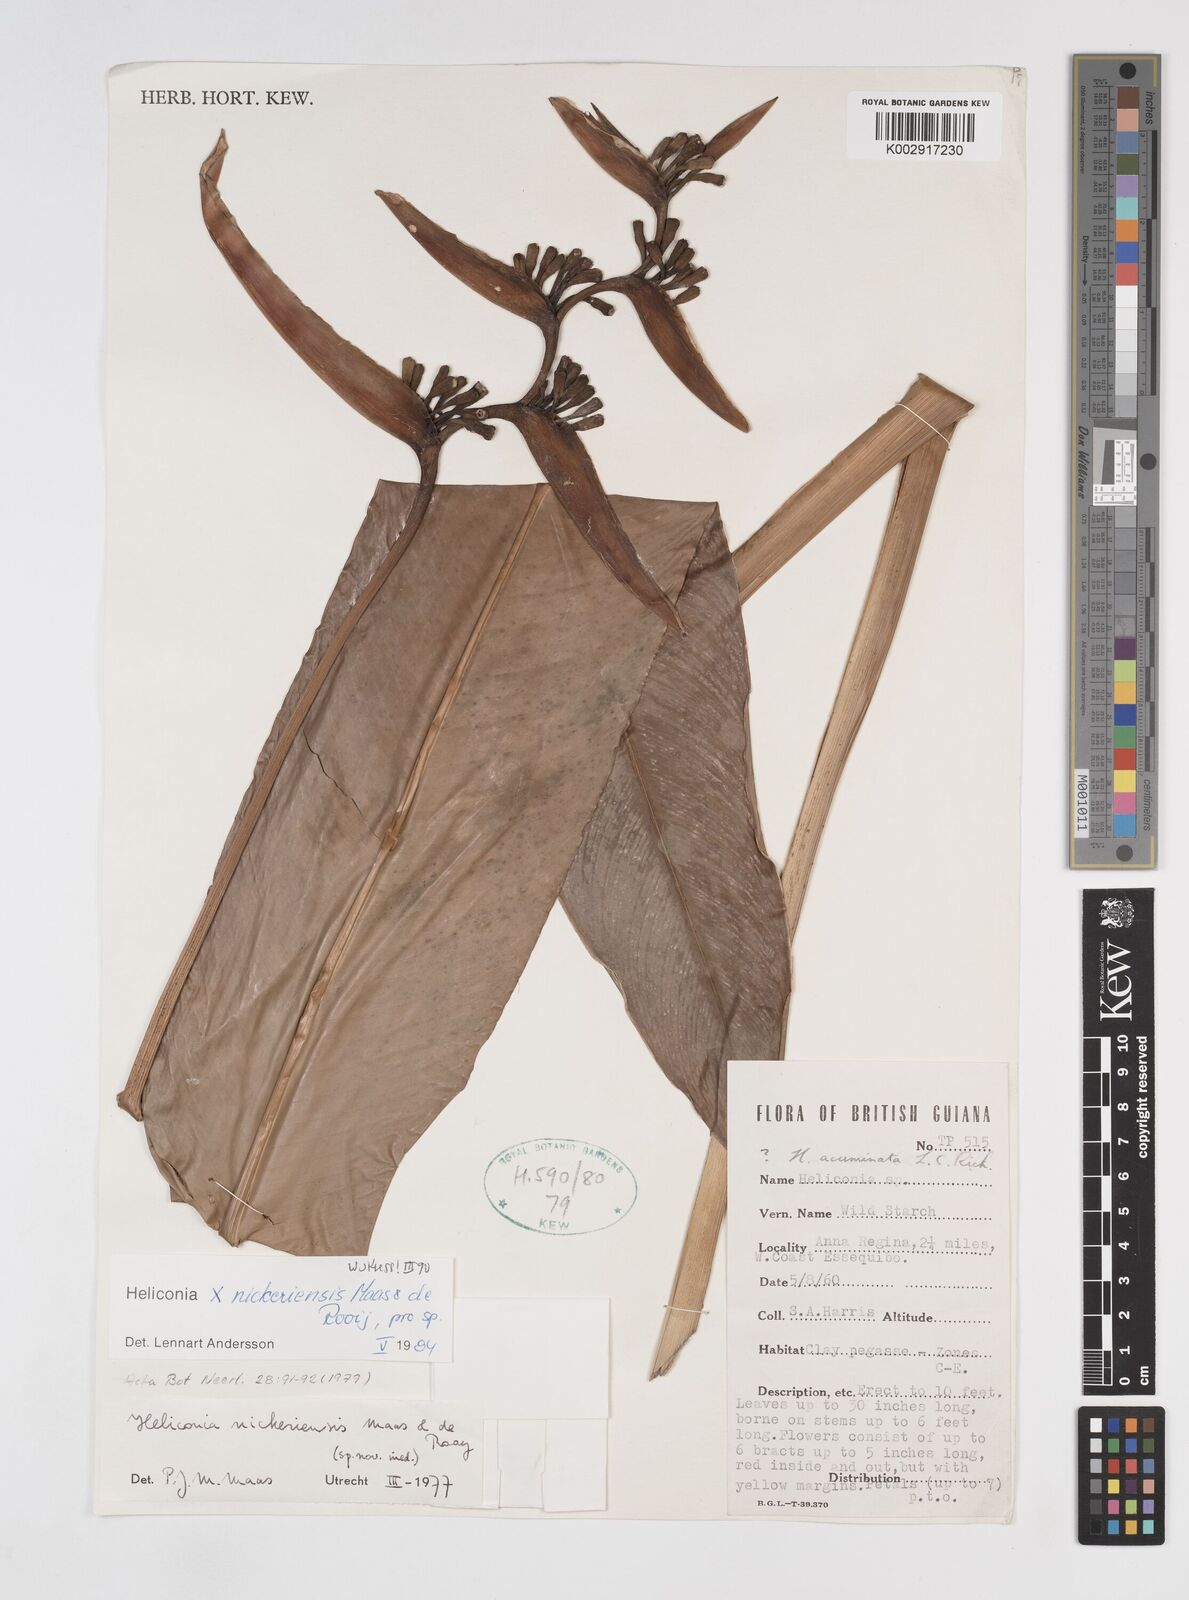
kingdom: Plantae
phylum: Tracheophyta
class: Liliopsida
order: Zingiberales
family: Heliconiaceae
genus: Heliconia
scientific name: Heliconia nickeriensis
